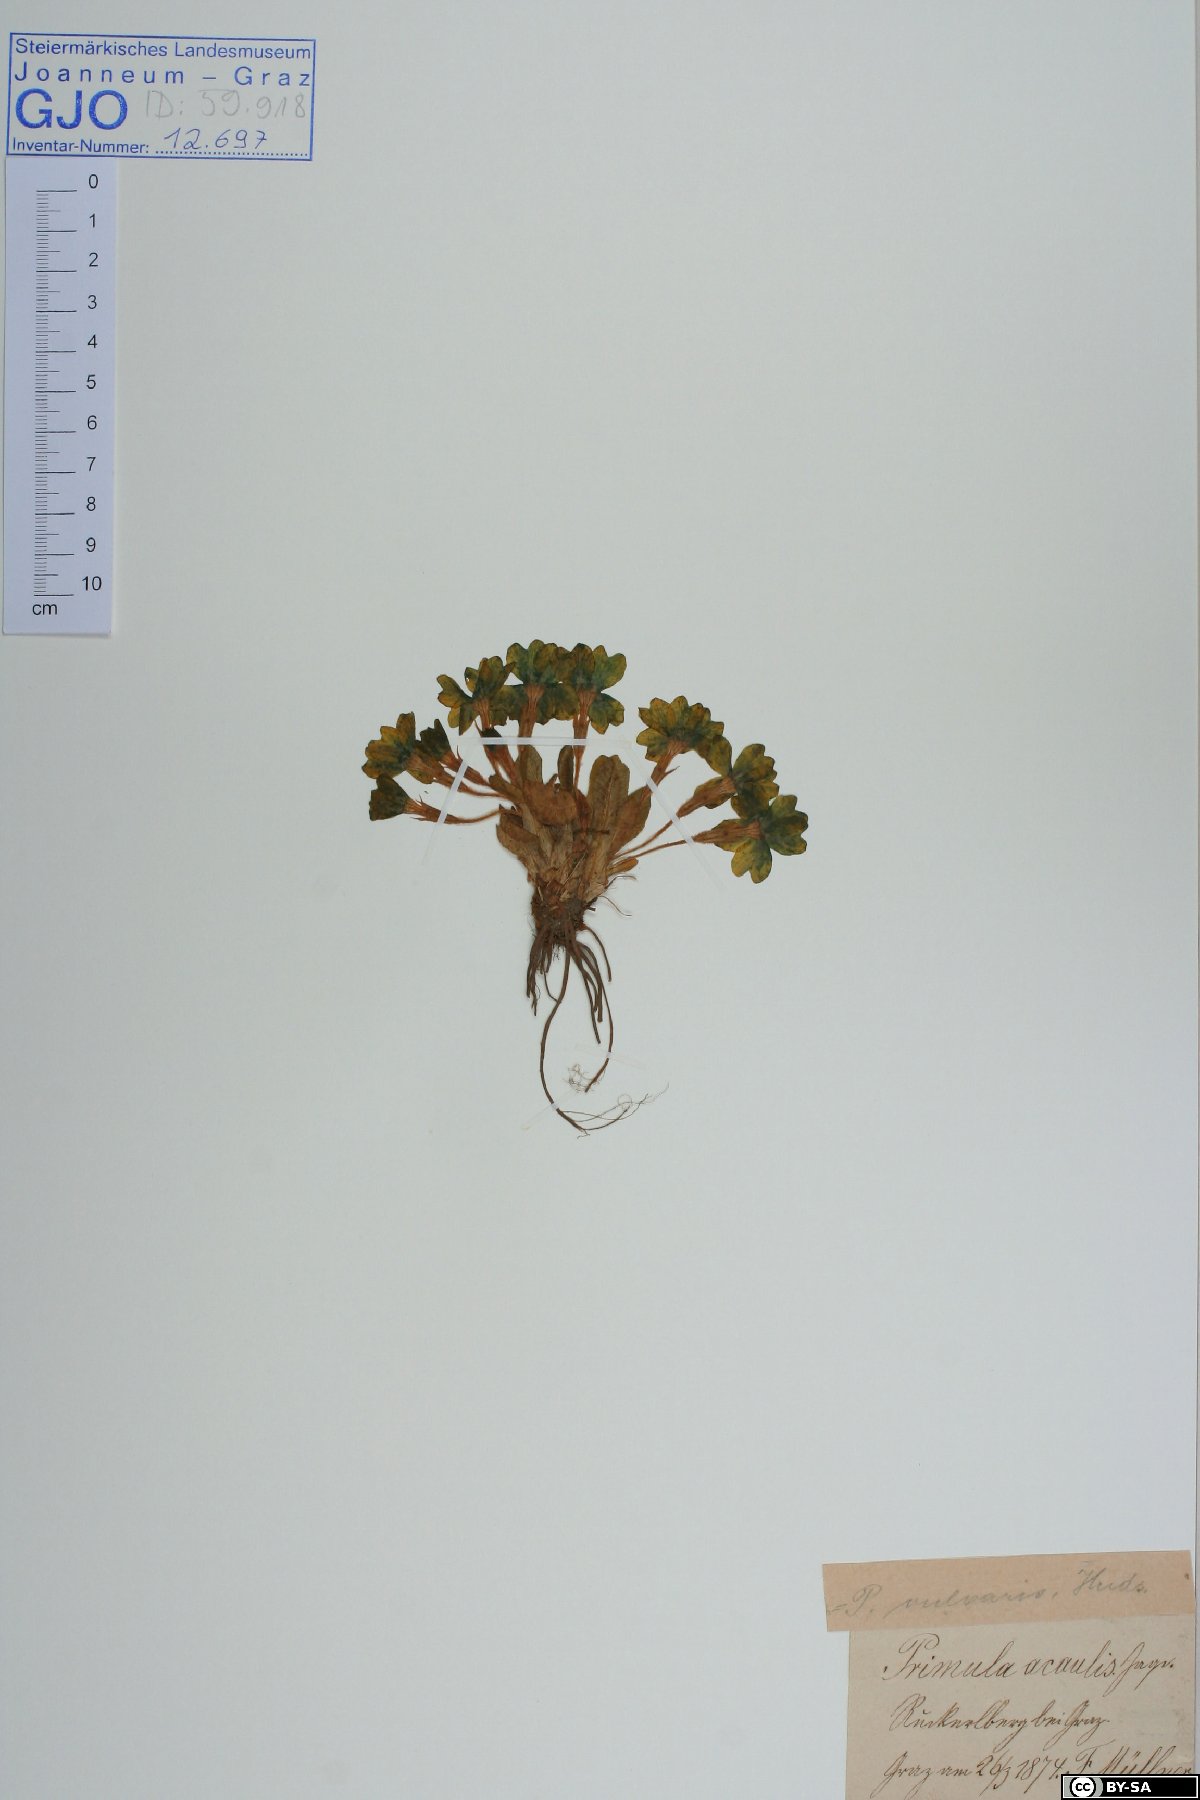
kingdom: Plantae
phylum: Tracheophyta
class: Magnoliopsida
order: Ericales
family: Primulaceae
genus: Primula
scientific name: Primula vulgaris
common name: Primrose
